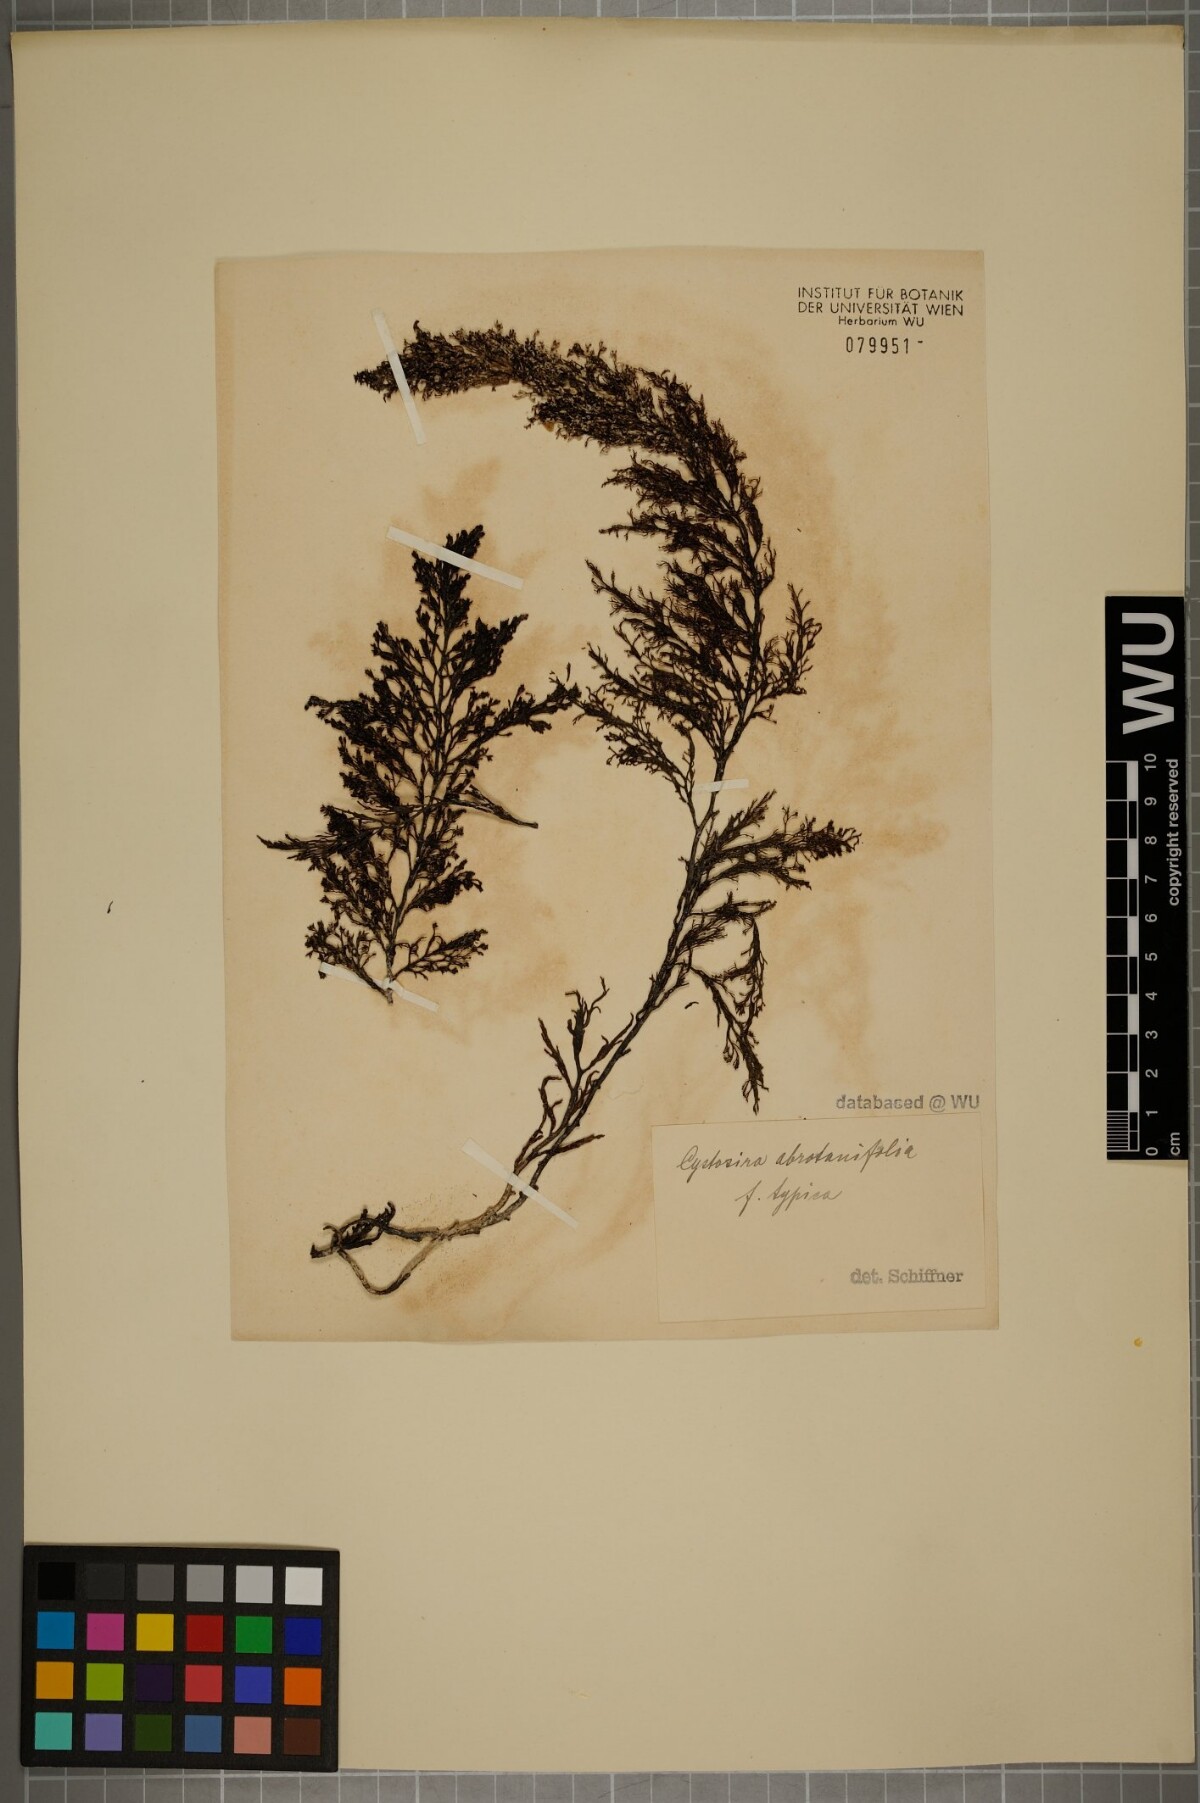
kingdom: Chromista
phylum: Ochrophyta
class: Phaeophyceae
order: Fucales
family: Sargassaceae
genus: Cystoseira
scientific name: Cystoseira foeniculacea
